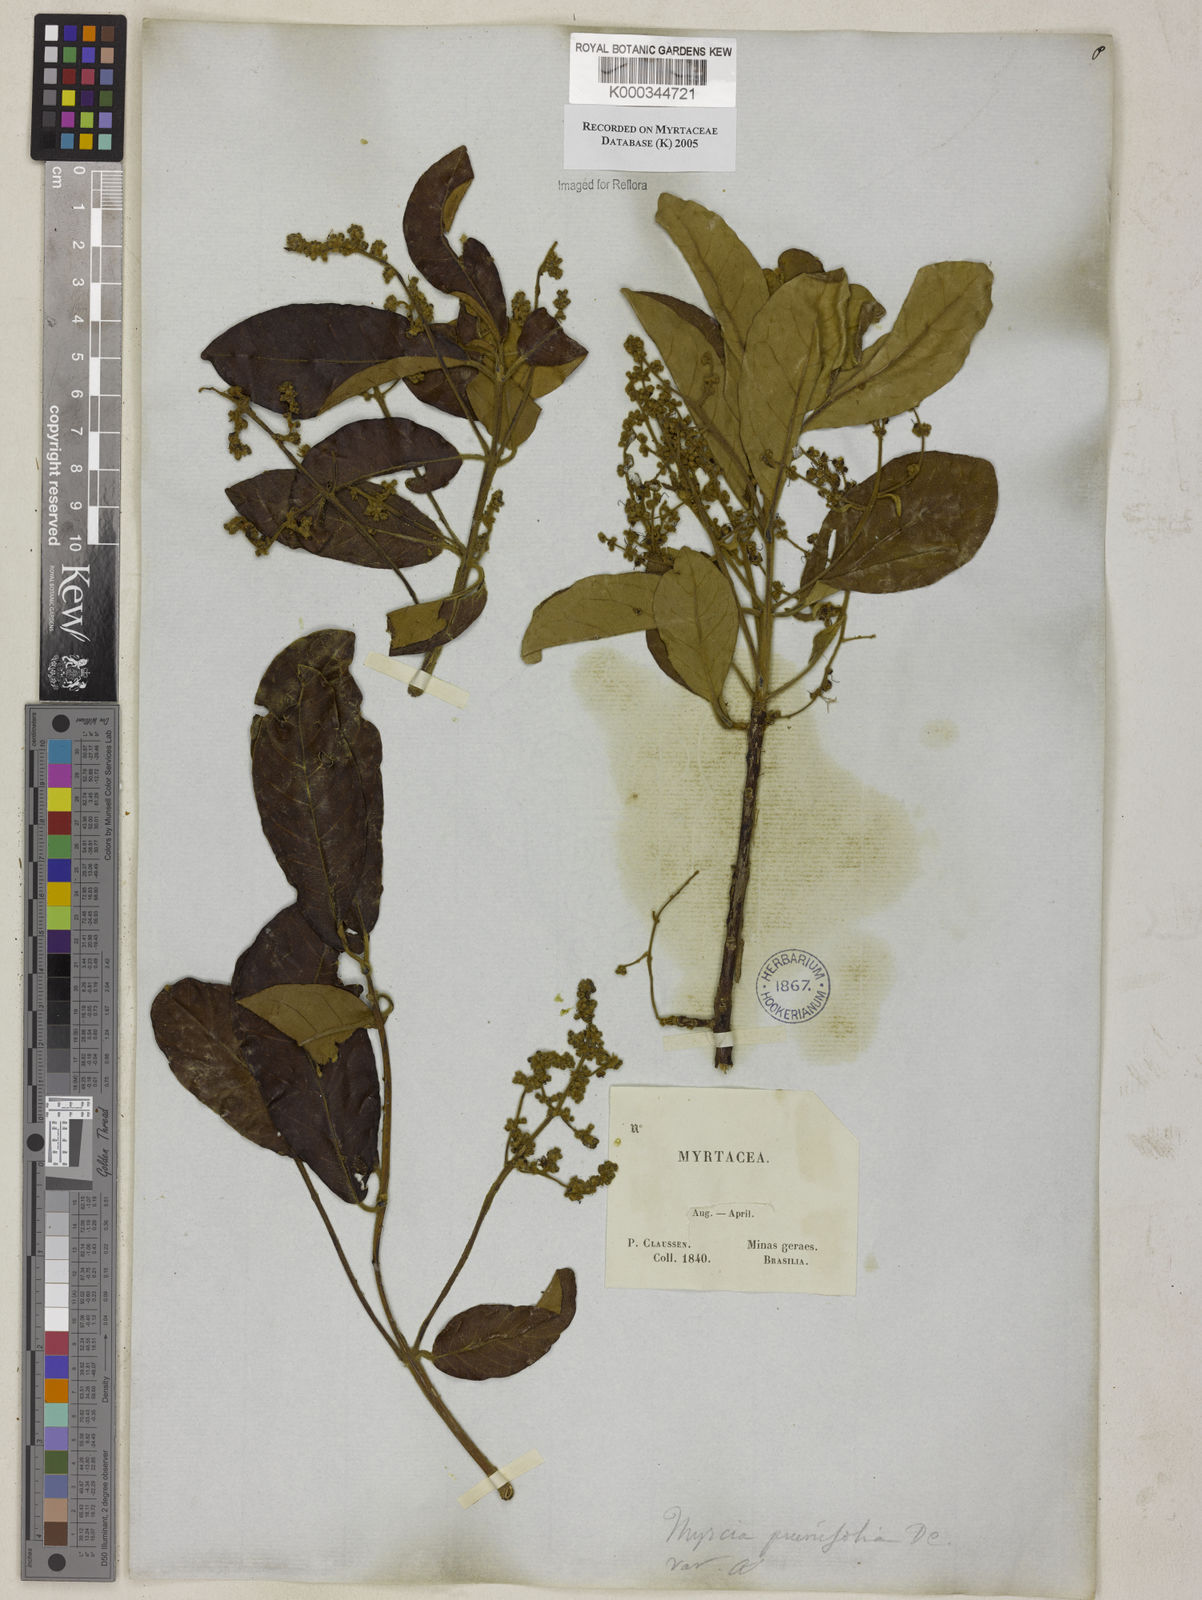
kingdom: Plantae
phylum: Tracheophyta
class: Magnoliopsida
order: Myrtales
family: Myrtaceae
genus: Myrcia
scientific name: Myrcia tomentosa
